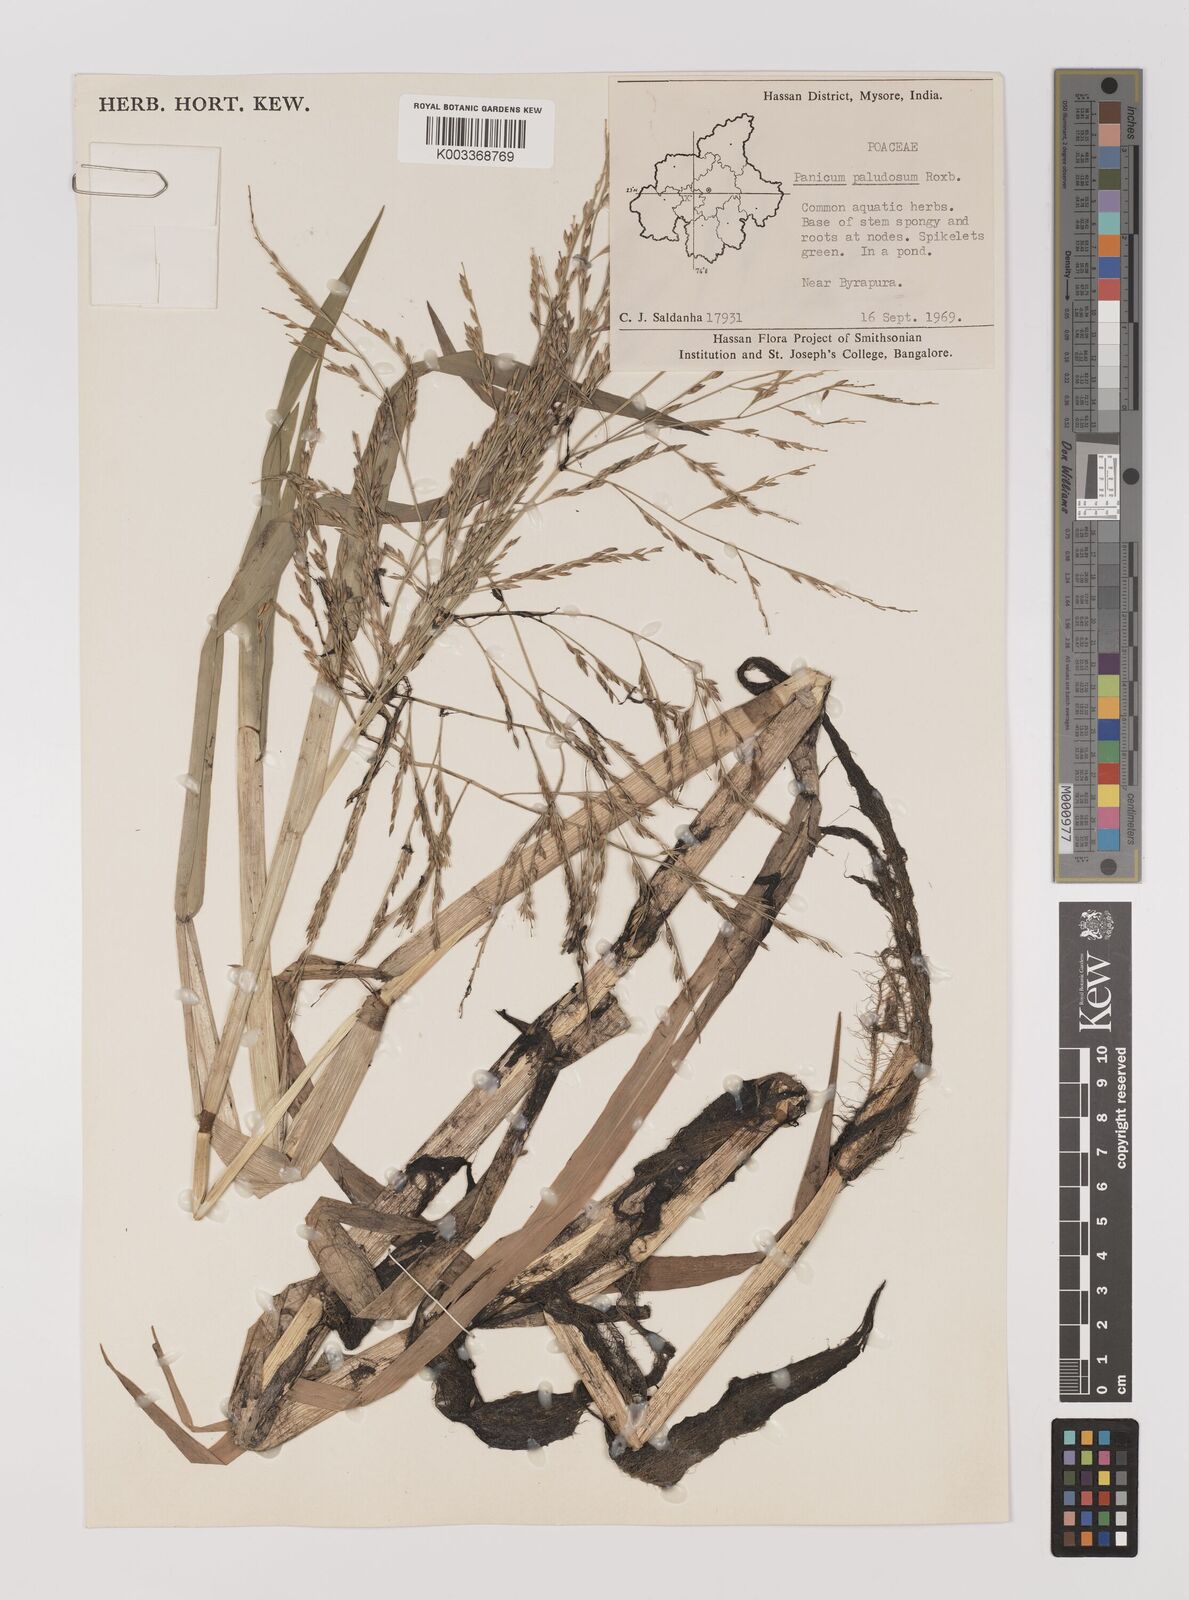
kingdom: Plantae
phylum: Tracheophyta
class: Liliopsida
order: Poales
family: Poaceae
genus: Louisiella
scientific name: Louisiella paludosa
